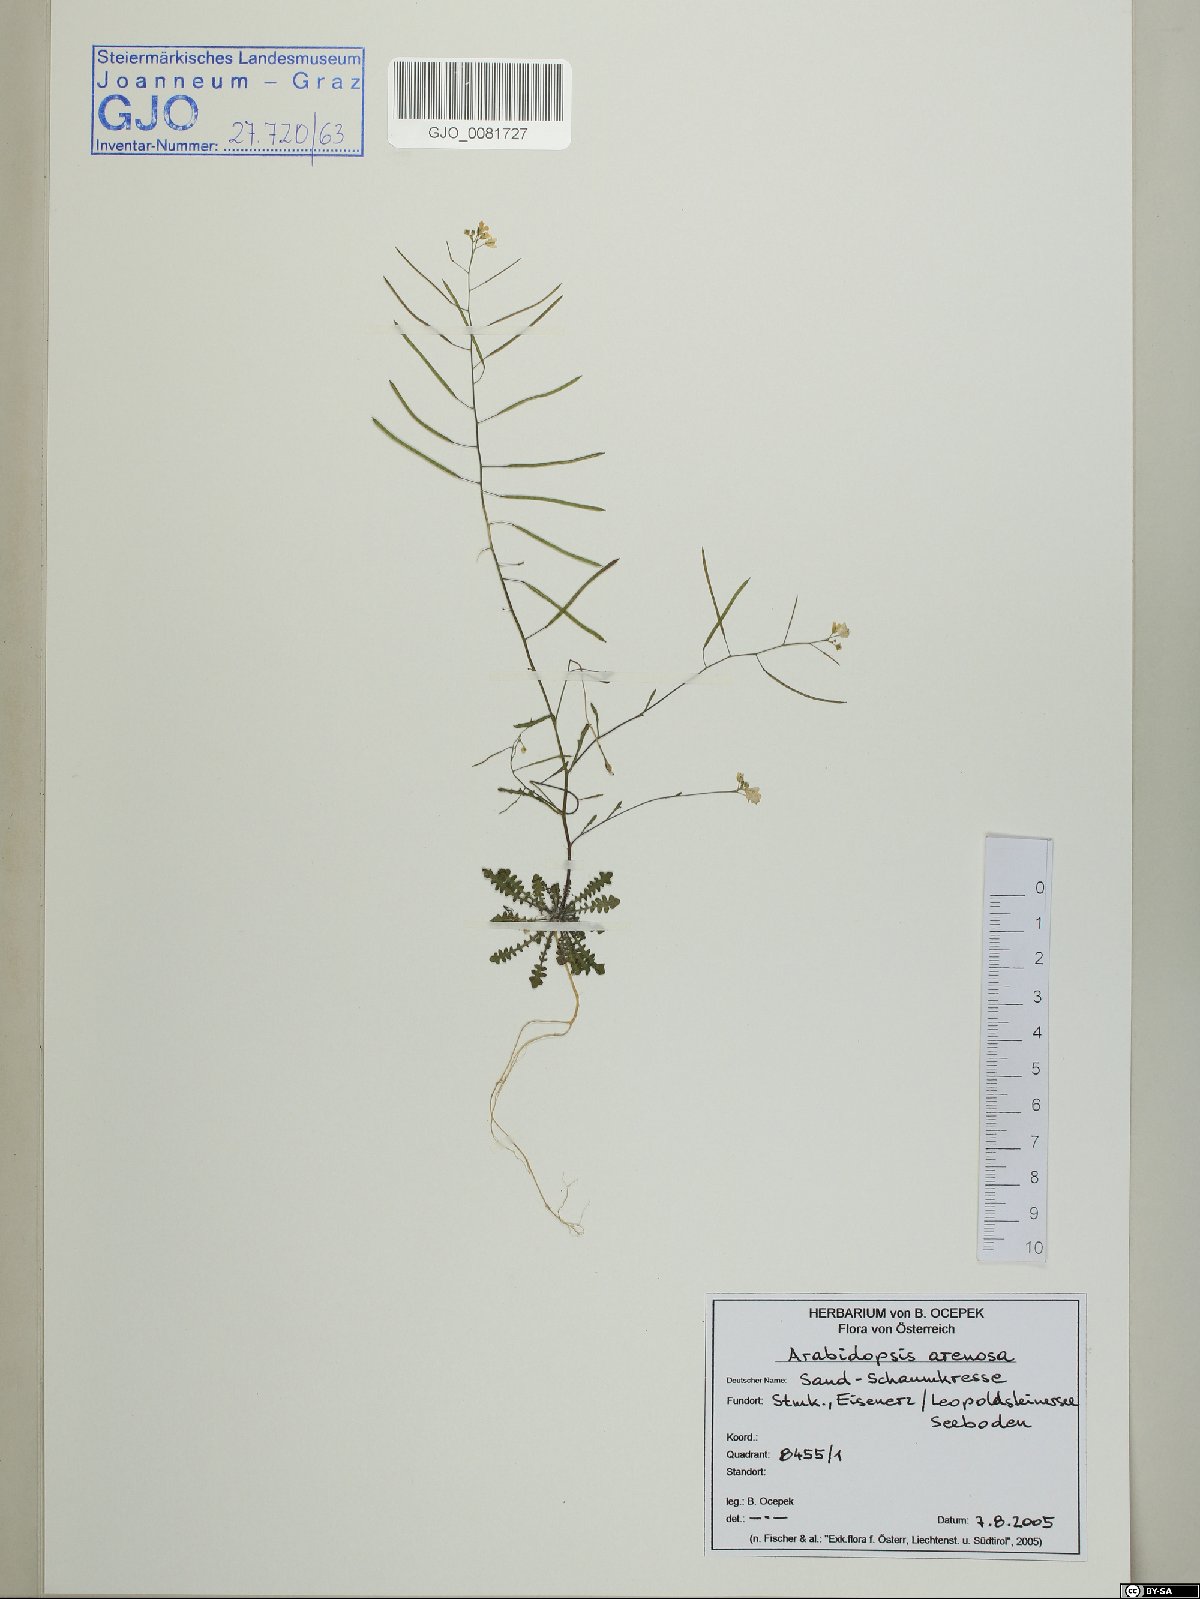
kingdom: Plantae
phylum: Tracheophyta
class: Magnoliopsida
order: Brassicales
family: Brassicaceae
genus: Arabidopsis
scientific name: Arabidopsis arenosa
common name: Sand rock-cress
